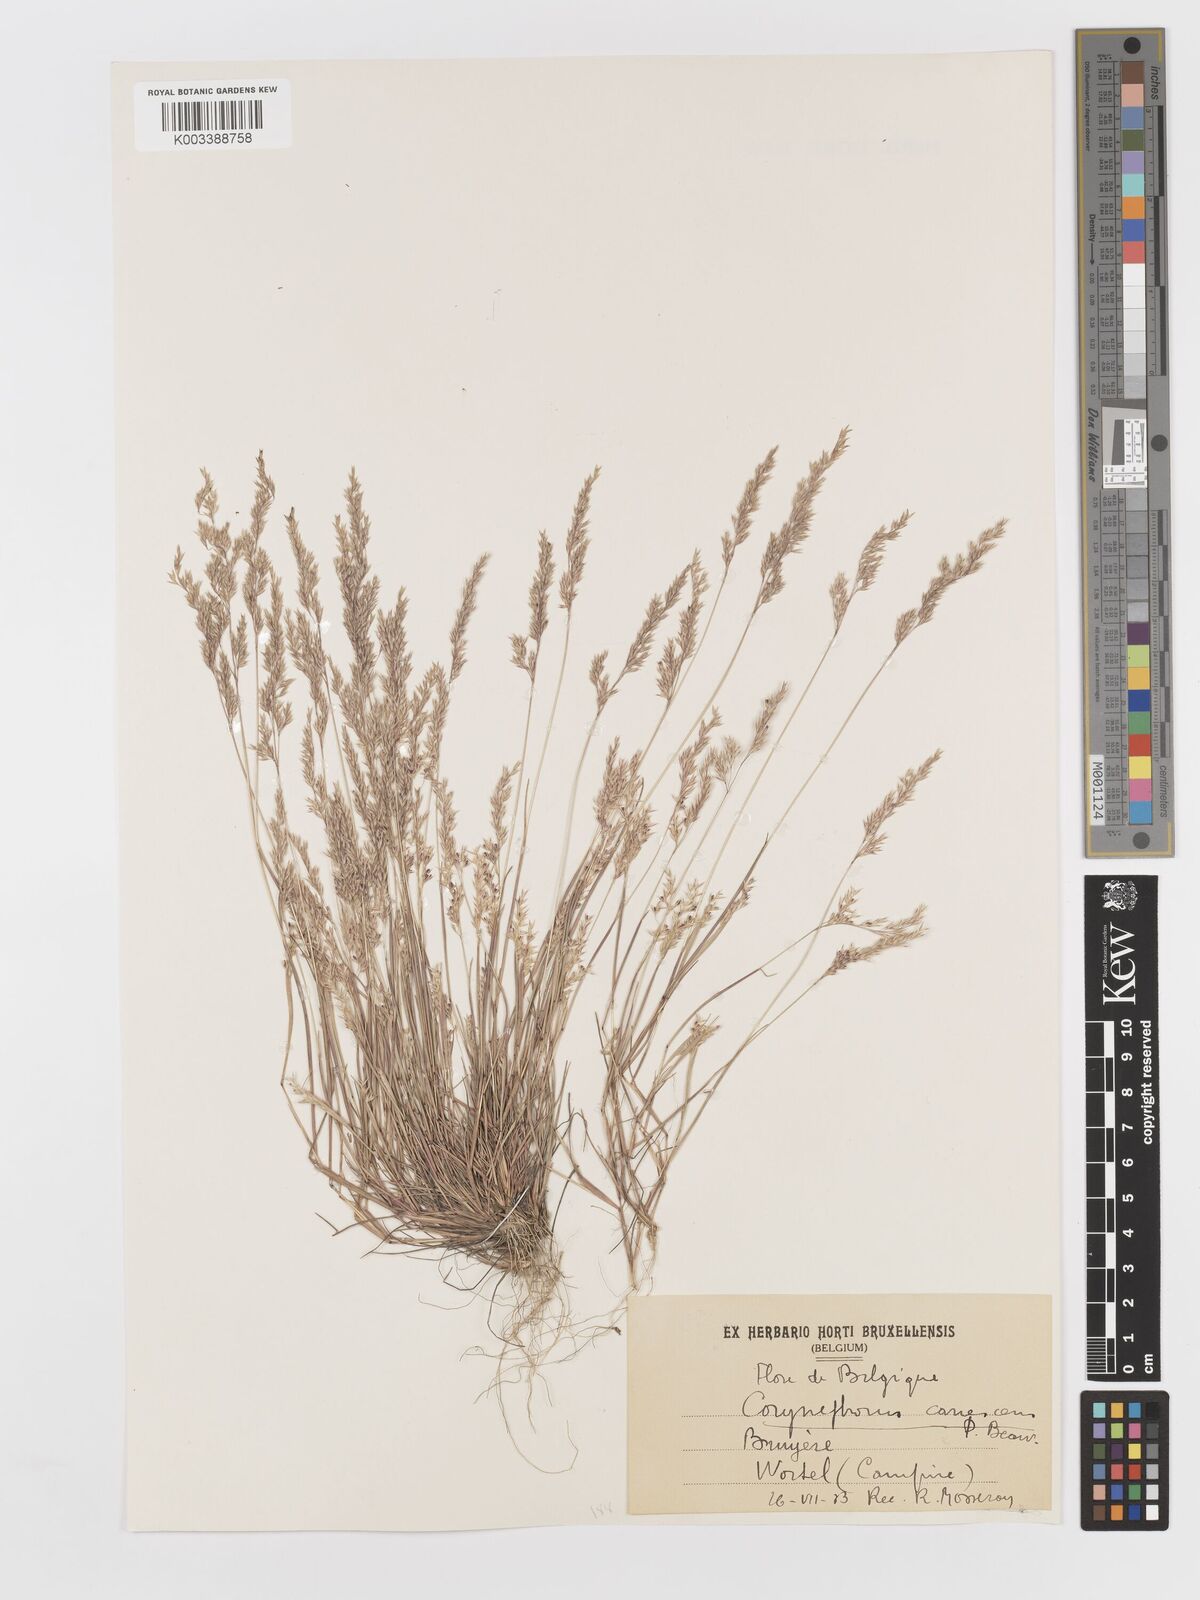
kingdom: Plantae
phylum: Tracheophyta
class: Liliopsida
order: Poales
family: Poaceae
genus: Corynephorus
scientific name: Corynephorus canescens
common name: Grey hair-grass
